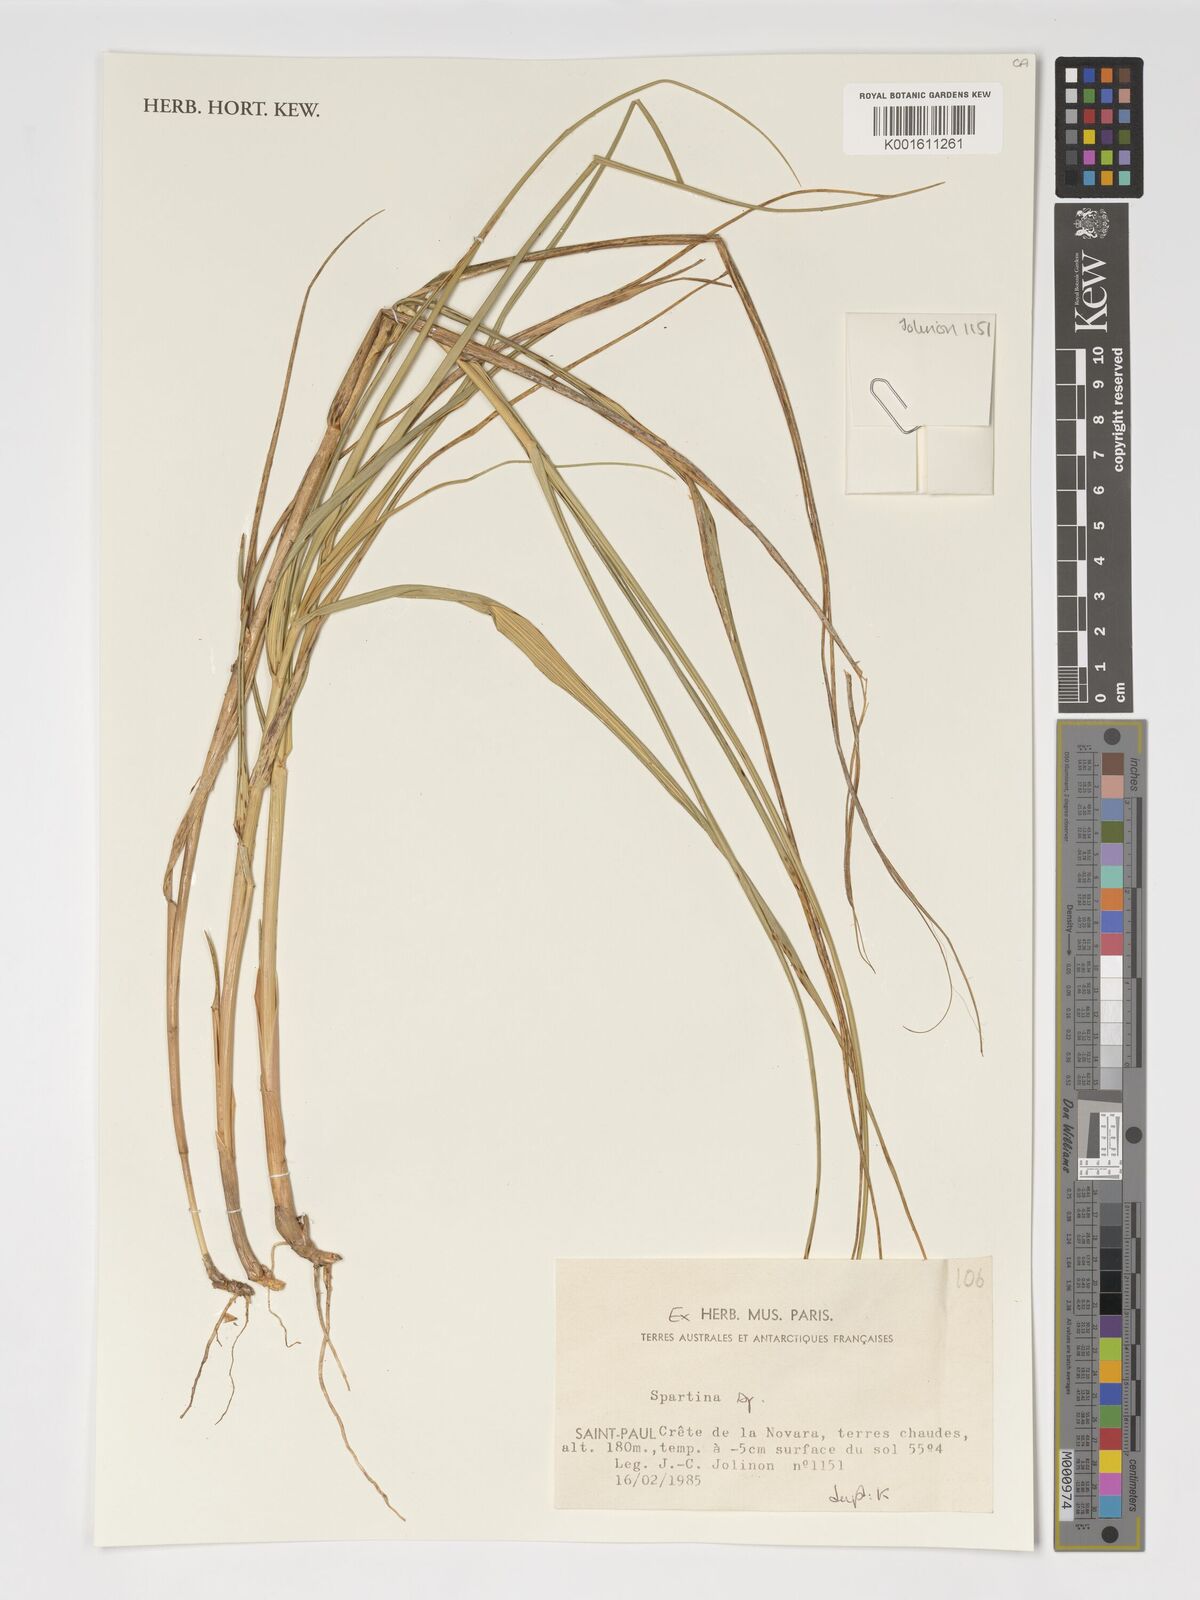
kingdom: Animalia
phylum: Mollusca
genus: Spartina
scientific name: Spartina
